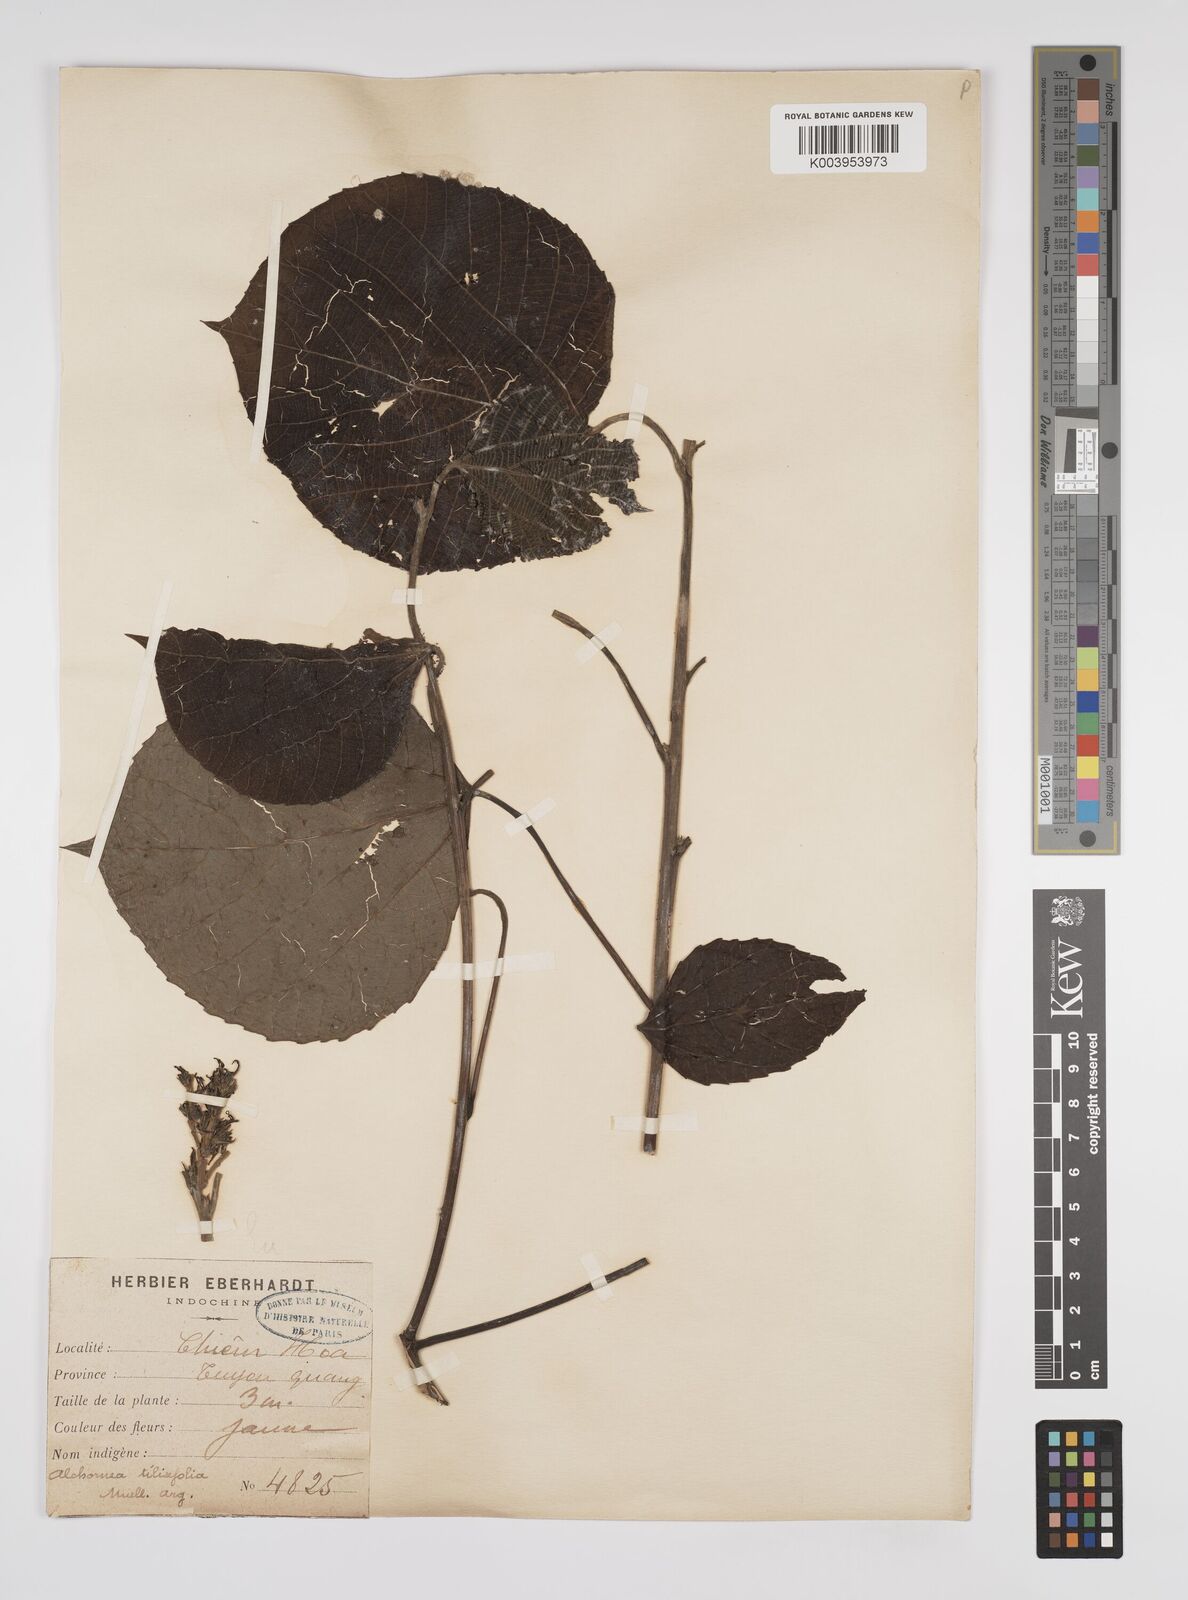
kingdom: Plantae
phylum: Tracheophyta
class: Magnoliopsida
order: Malpighiales
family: Euphorbiaceae
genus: Alchornea
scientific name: Alchornea tiliifolia
